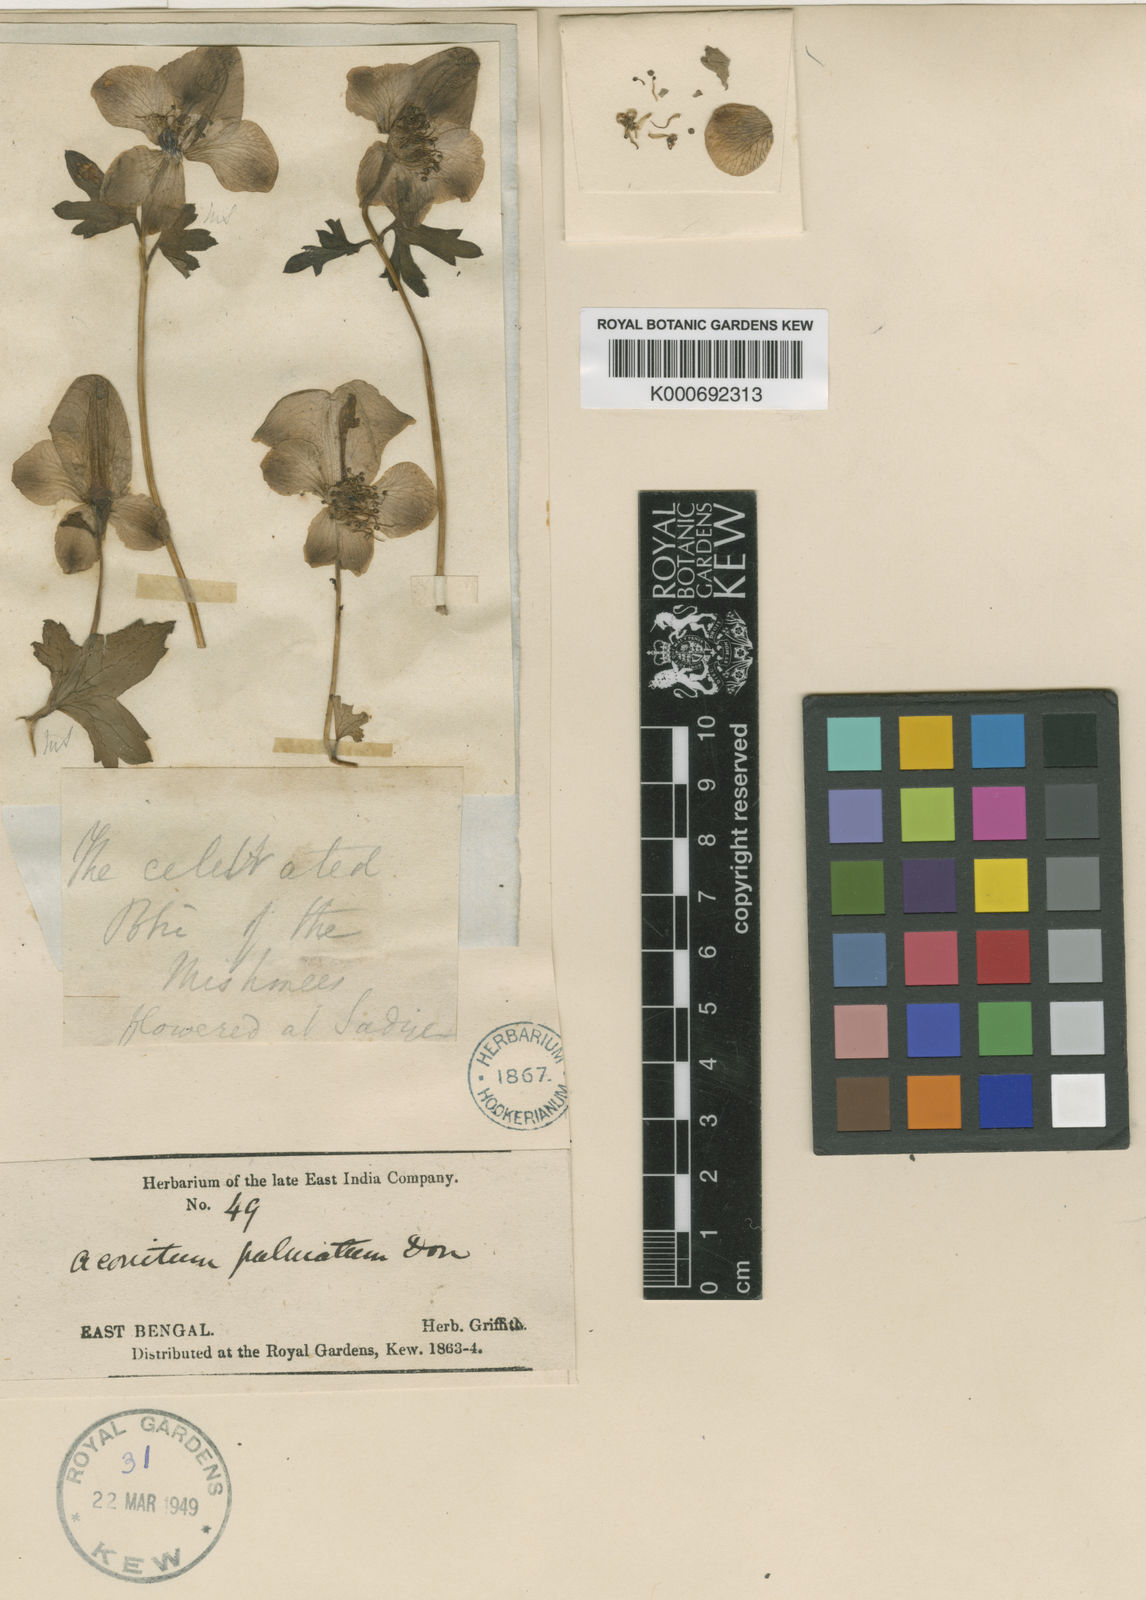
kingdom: Plantae
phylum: Tracheophyta
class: Magnoliopsida
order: Ranunculales
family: Ranunculaceae
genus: Aconitum
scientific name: Aconitum lethale
